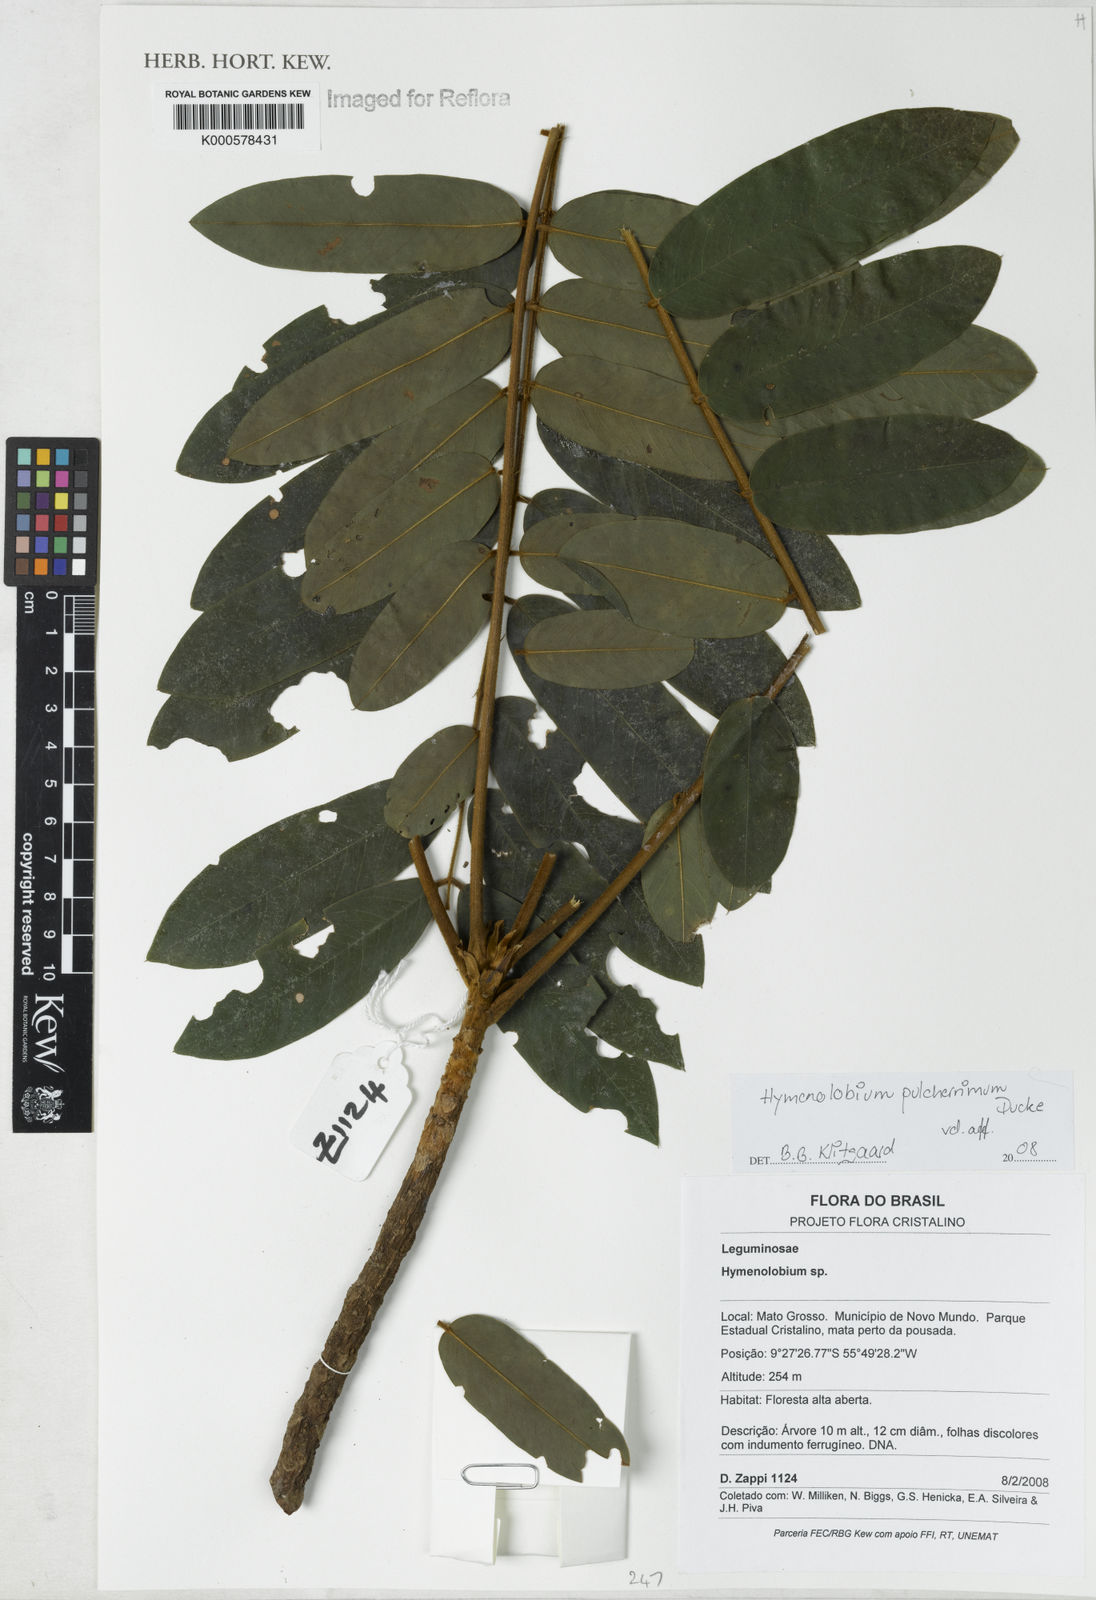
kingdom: Plantae
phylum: Tracheophyta
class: Magnoliopsida
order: Fabales
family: Fabaceae
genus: Hymenolobium
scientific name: Hymenolobium pulcherrimum
